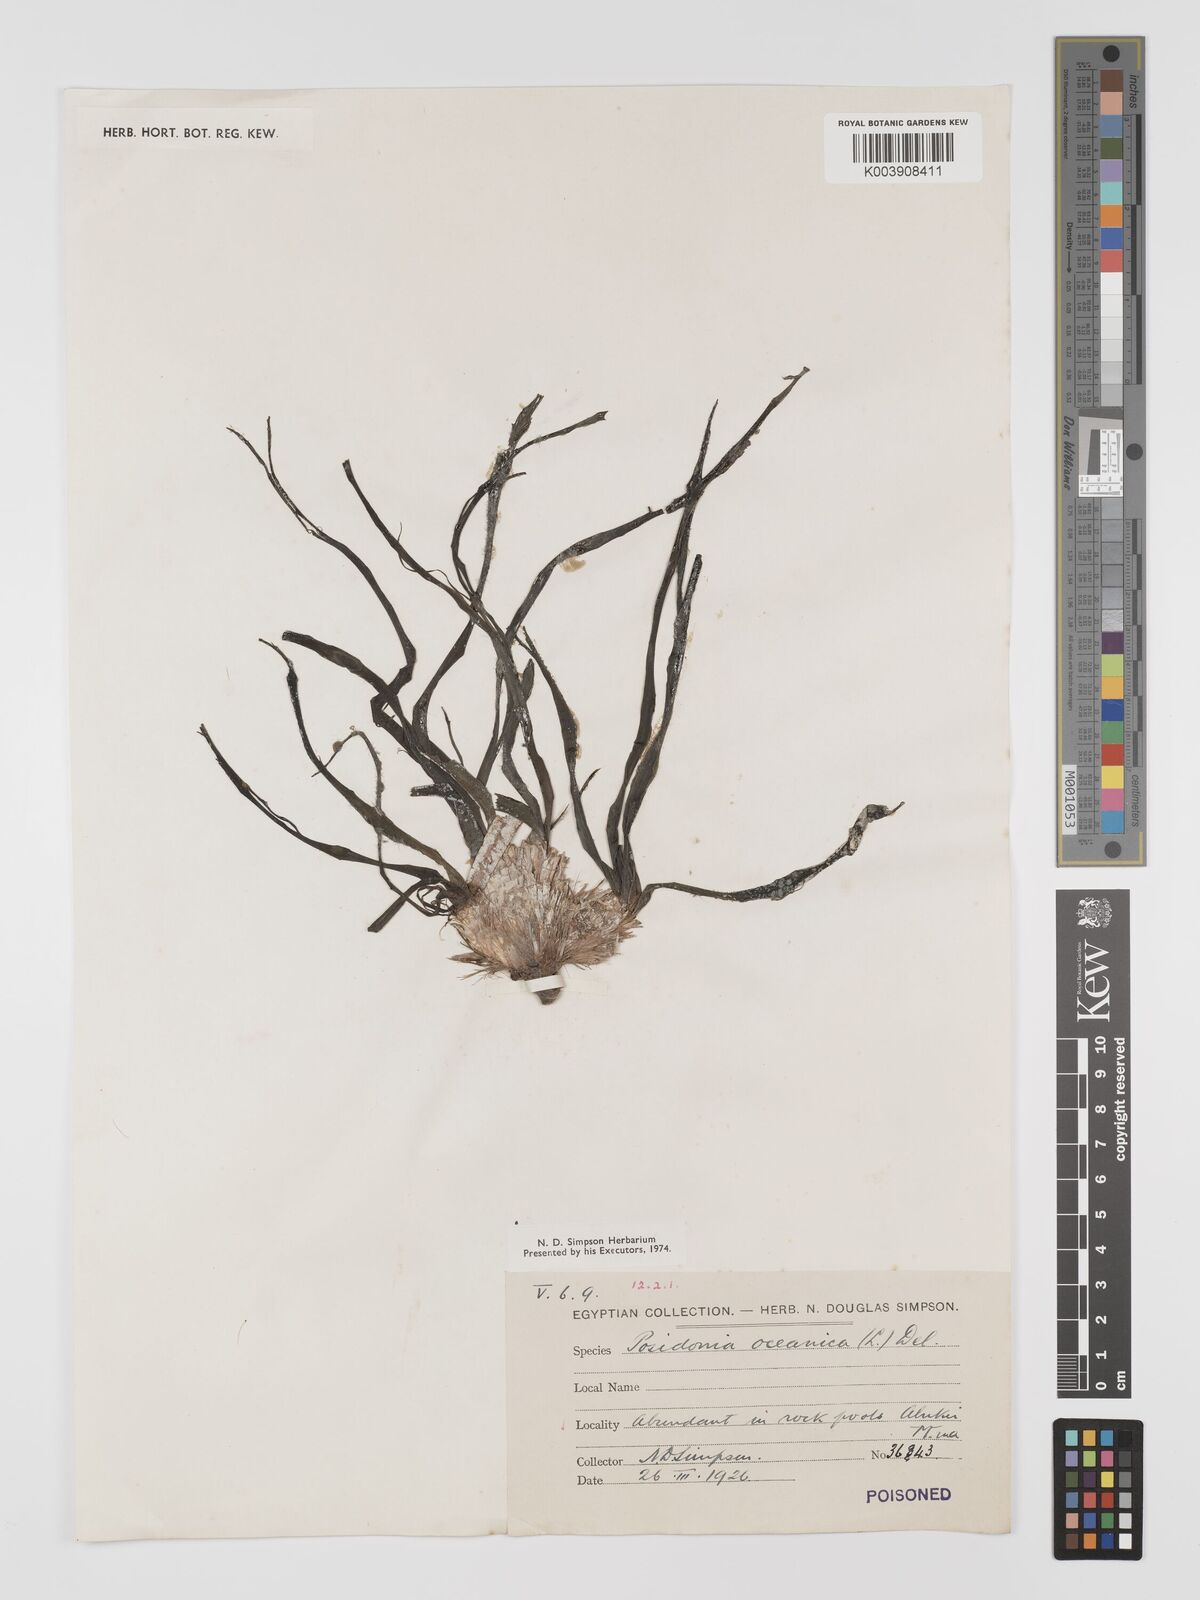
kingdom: Plantae
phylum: Tracheophyta
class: Liliopsida
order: Alismatales
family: Posidoniaceae
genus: Posidonia
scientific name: Posidonia oceanica
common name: Mediterranean tapeweed
